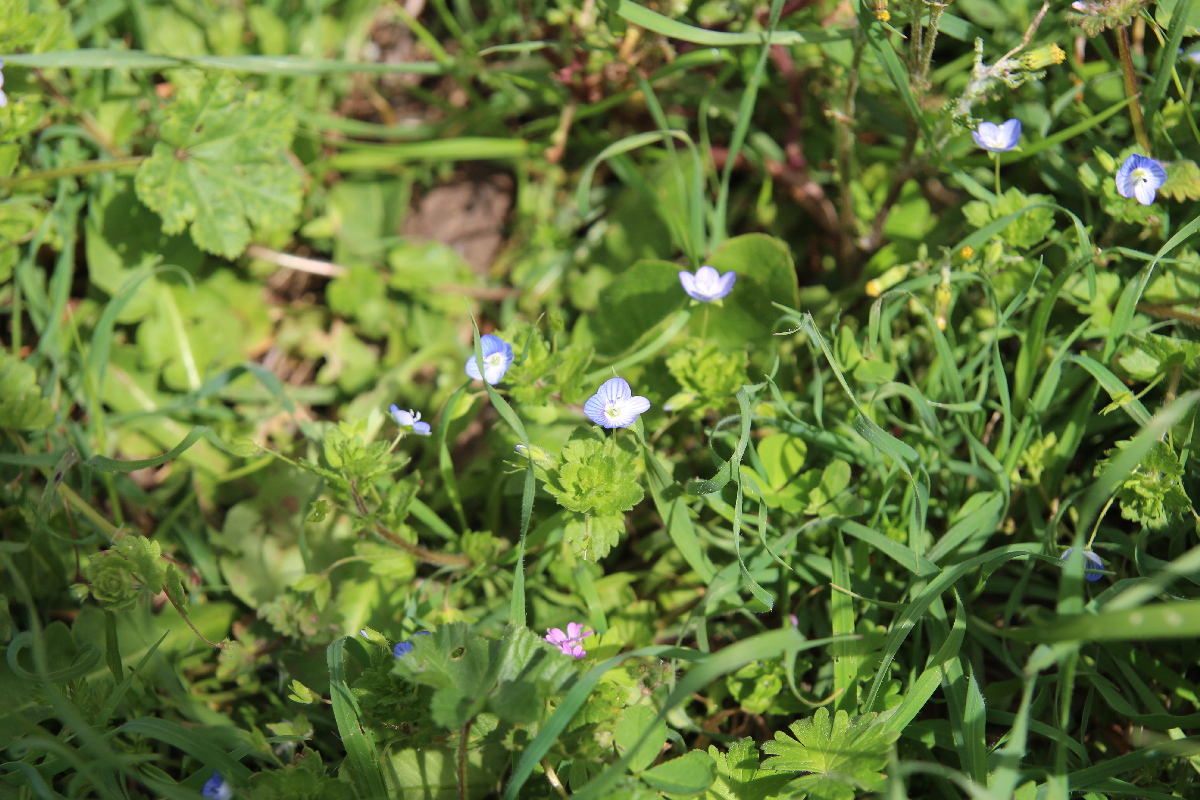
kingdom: Plantae
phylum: Tracheophyta
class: Magnoliopsida
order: Lamiales
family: Plantaginaceae
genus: Veronica
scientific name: Veronica persica
